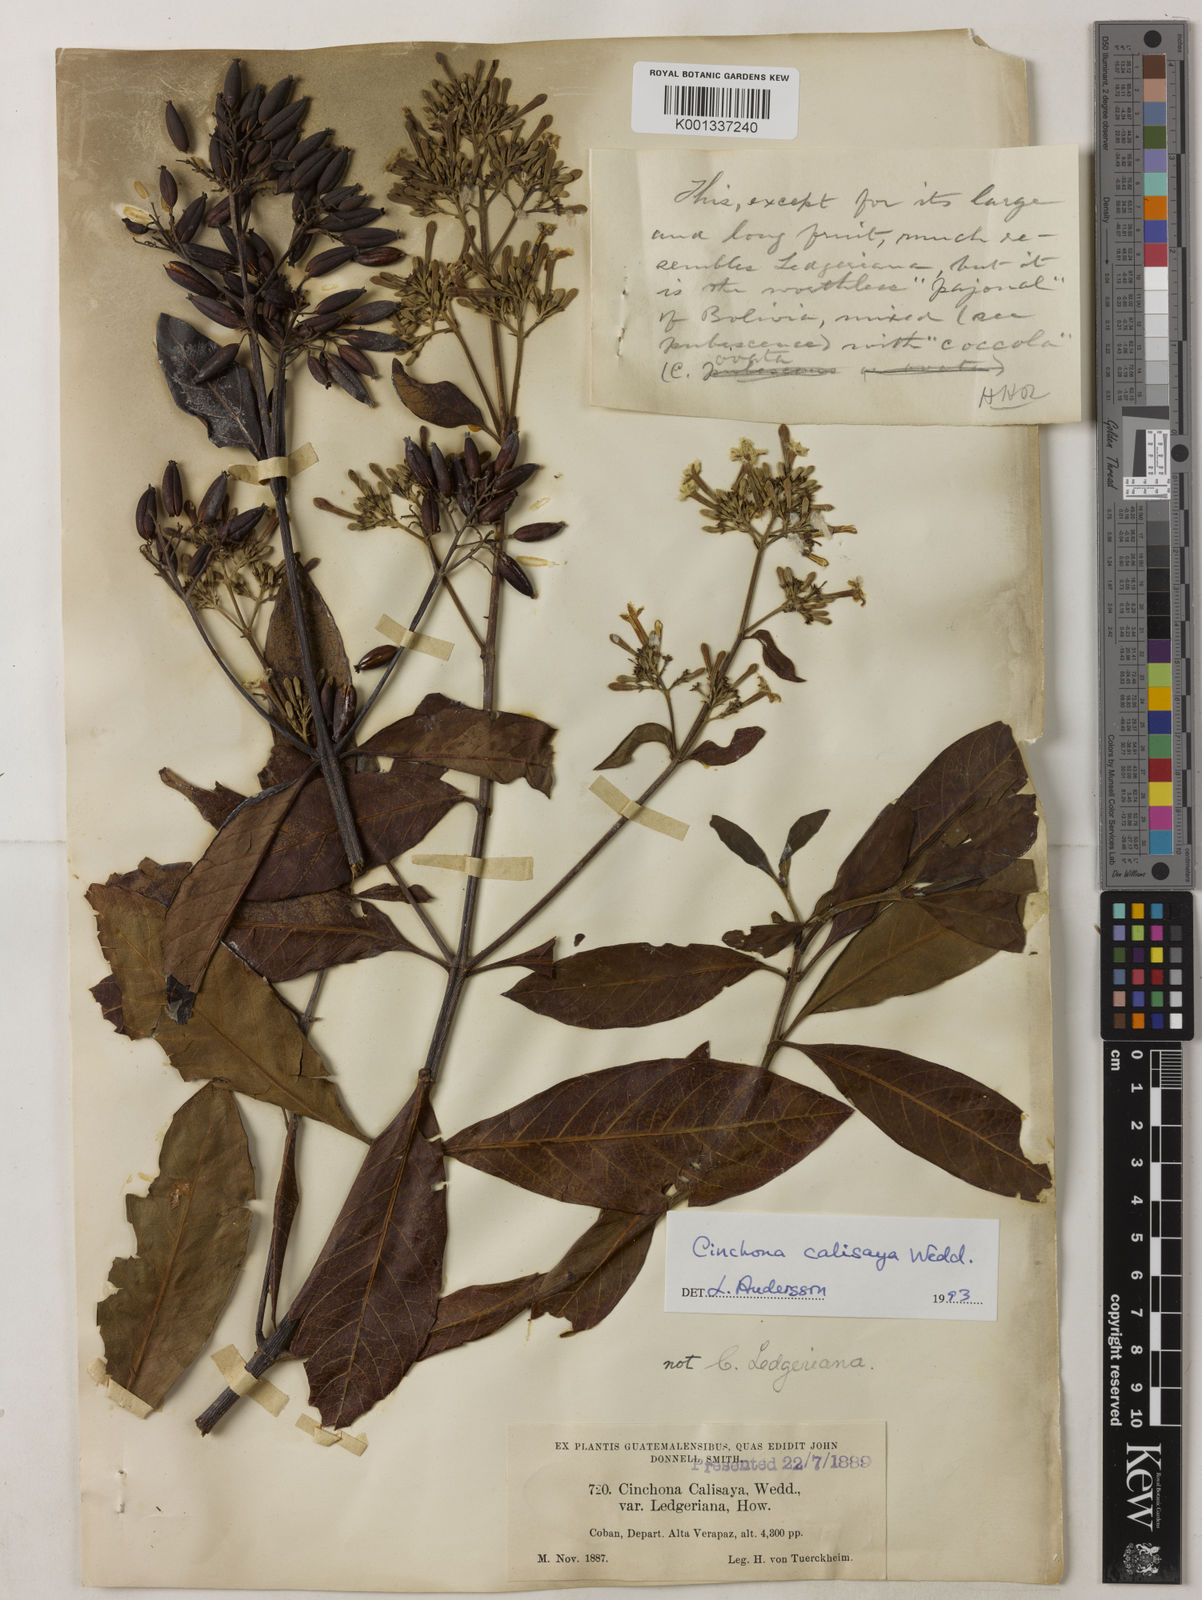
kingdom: Plantae
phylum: Tracheophyta
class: Magnoliopsida
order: Gentianales
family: Rubiaceae
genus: Cinchona
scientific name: Cinchona calisaya
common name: Ledgerbark
